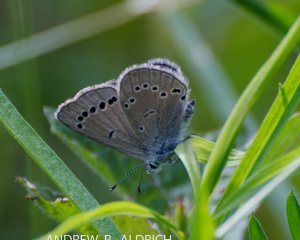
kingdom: Animalia
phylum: Arthropoda
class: Insecta
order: Lepidoptera
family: Lycaenidae
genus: Glaucopsyche
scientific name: Glaucopsyche lygdamus
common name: Silvery Blue
